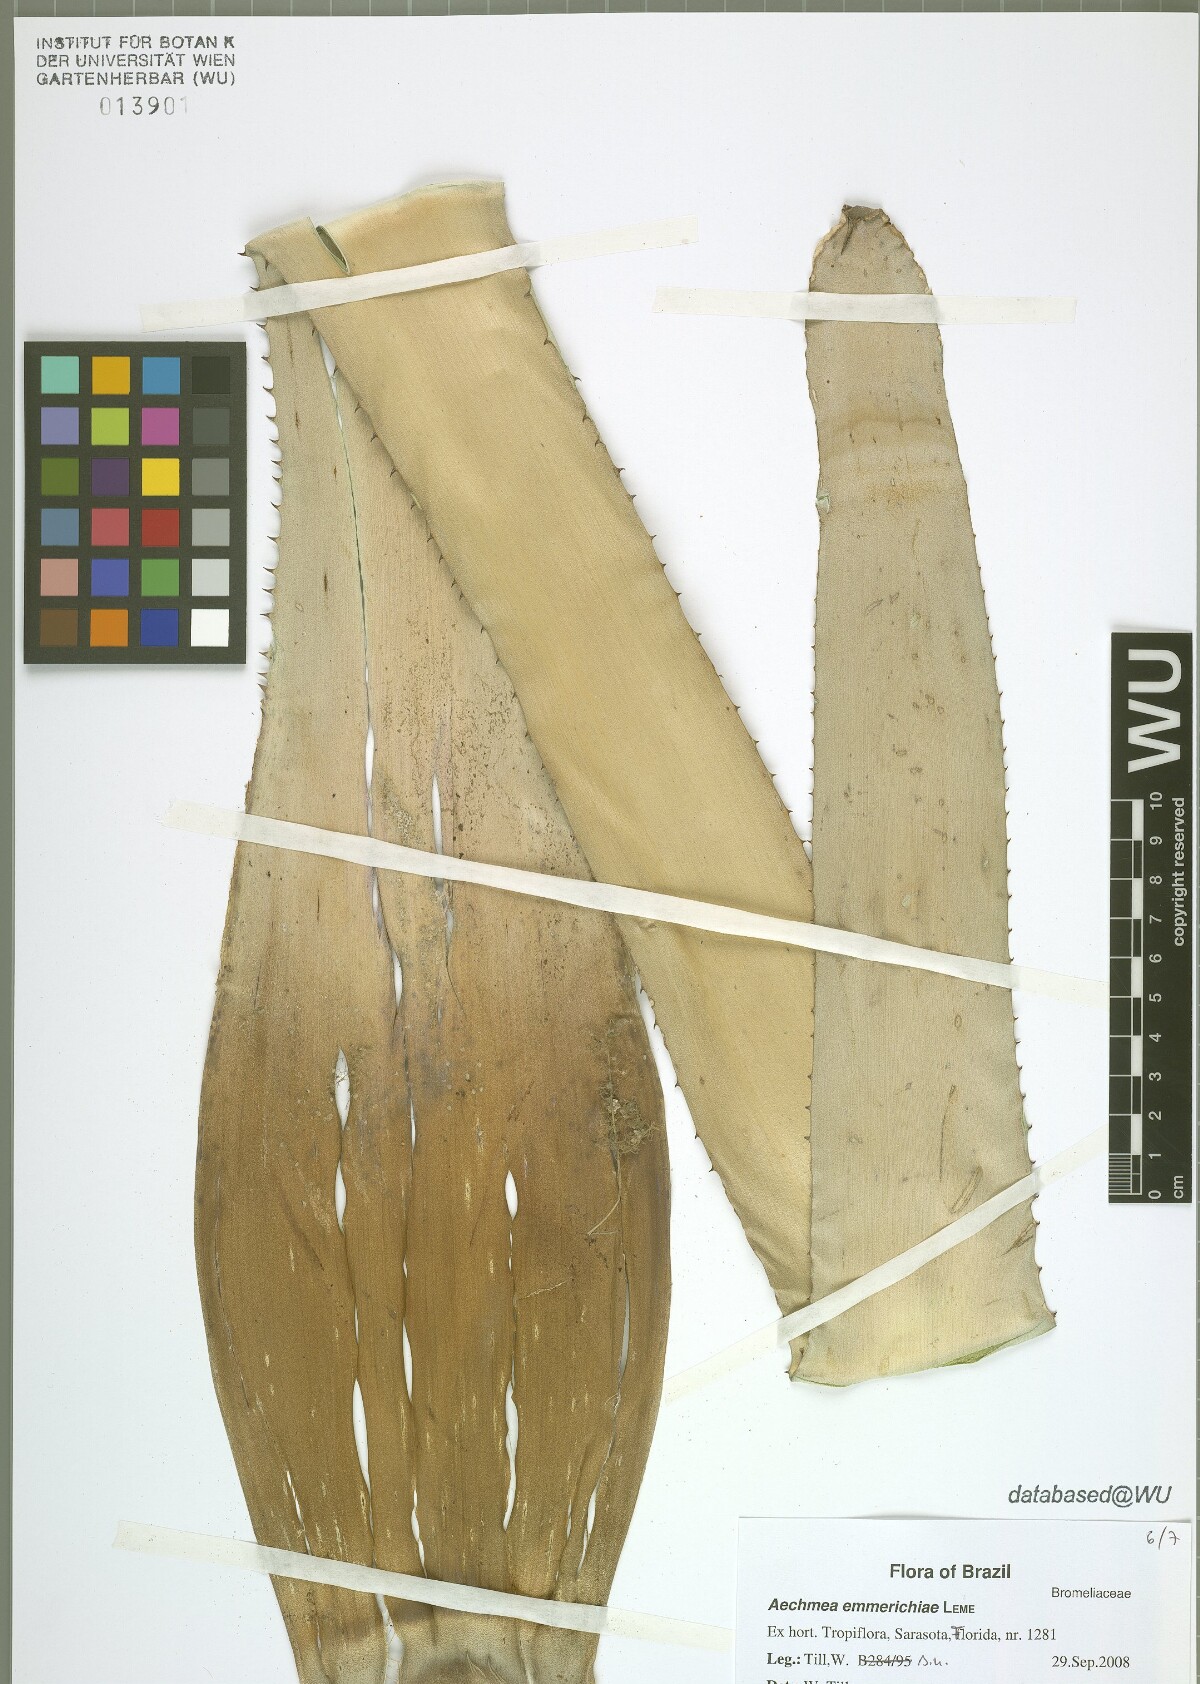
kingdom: Plantae
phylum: Tracheophyta
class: Liliopsida
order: Poales
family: Bromeliaceae
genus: Aechmea
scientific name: Aechmea emmerichiae
